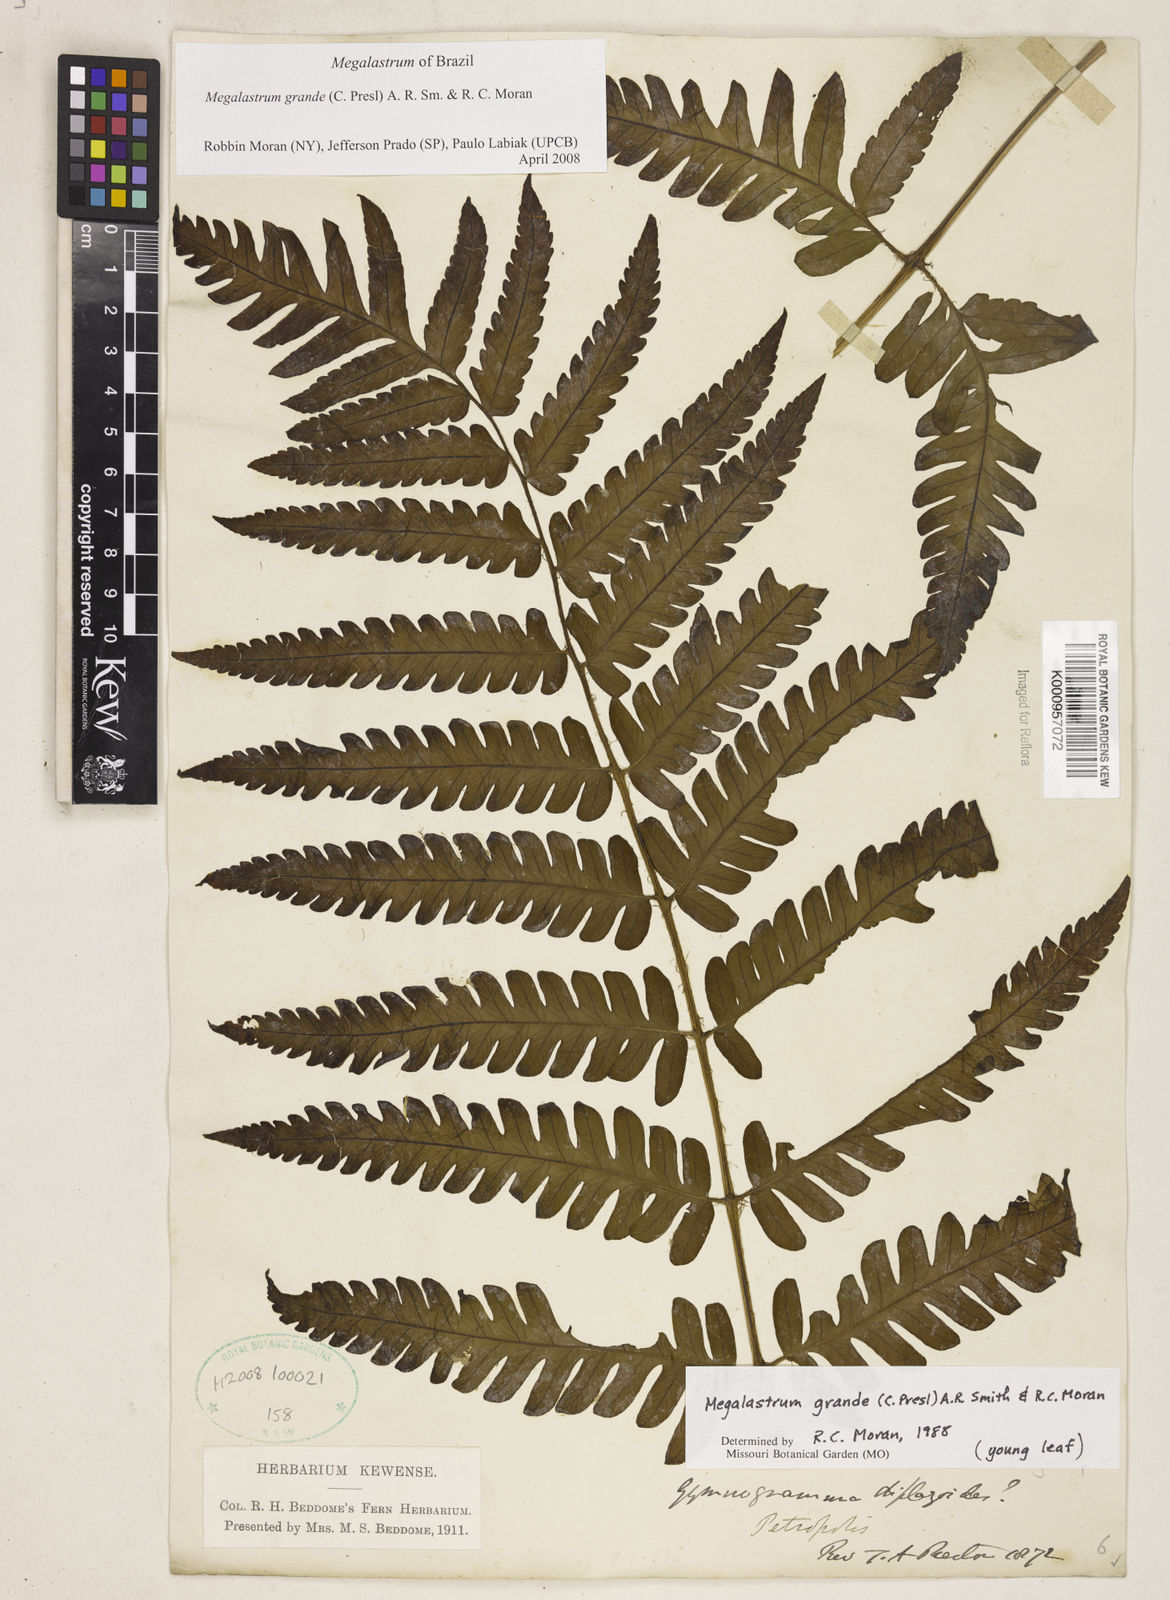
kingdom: Plantae
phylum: Tracheophyta
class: Polypodiopsida
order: Polypodiales
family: Dryopteridaceae
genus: Megalastrum
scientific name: Megalastrum grande
